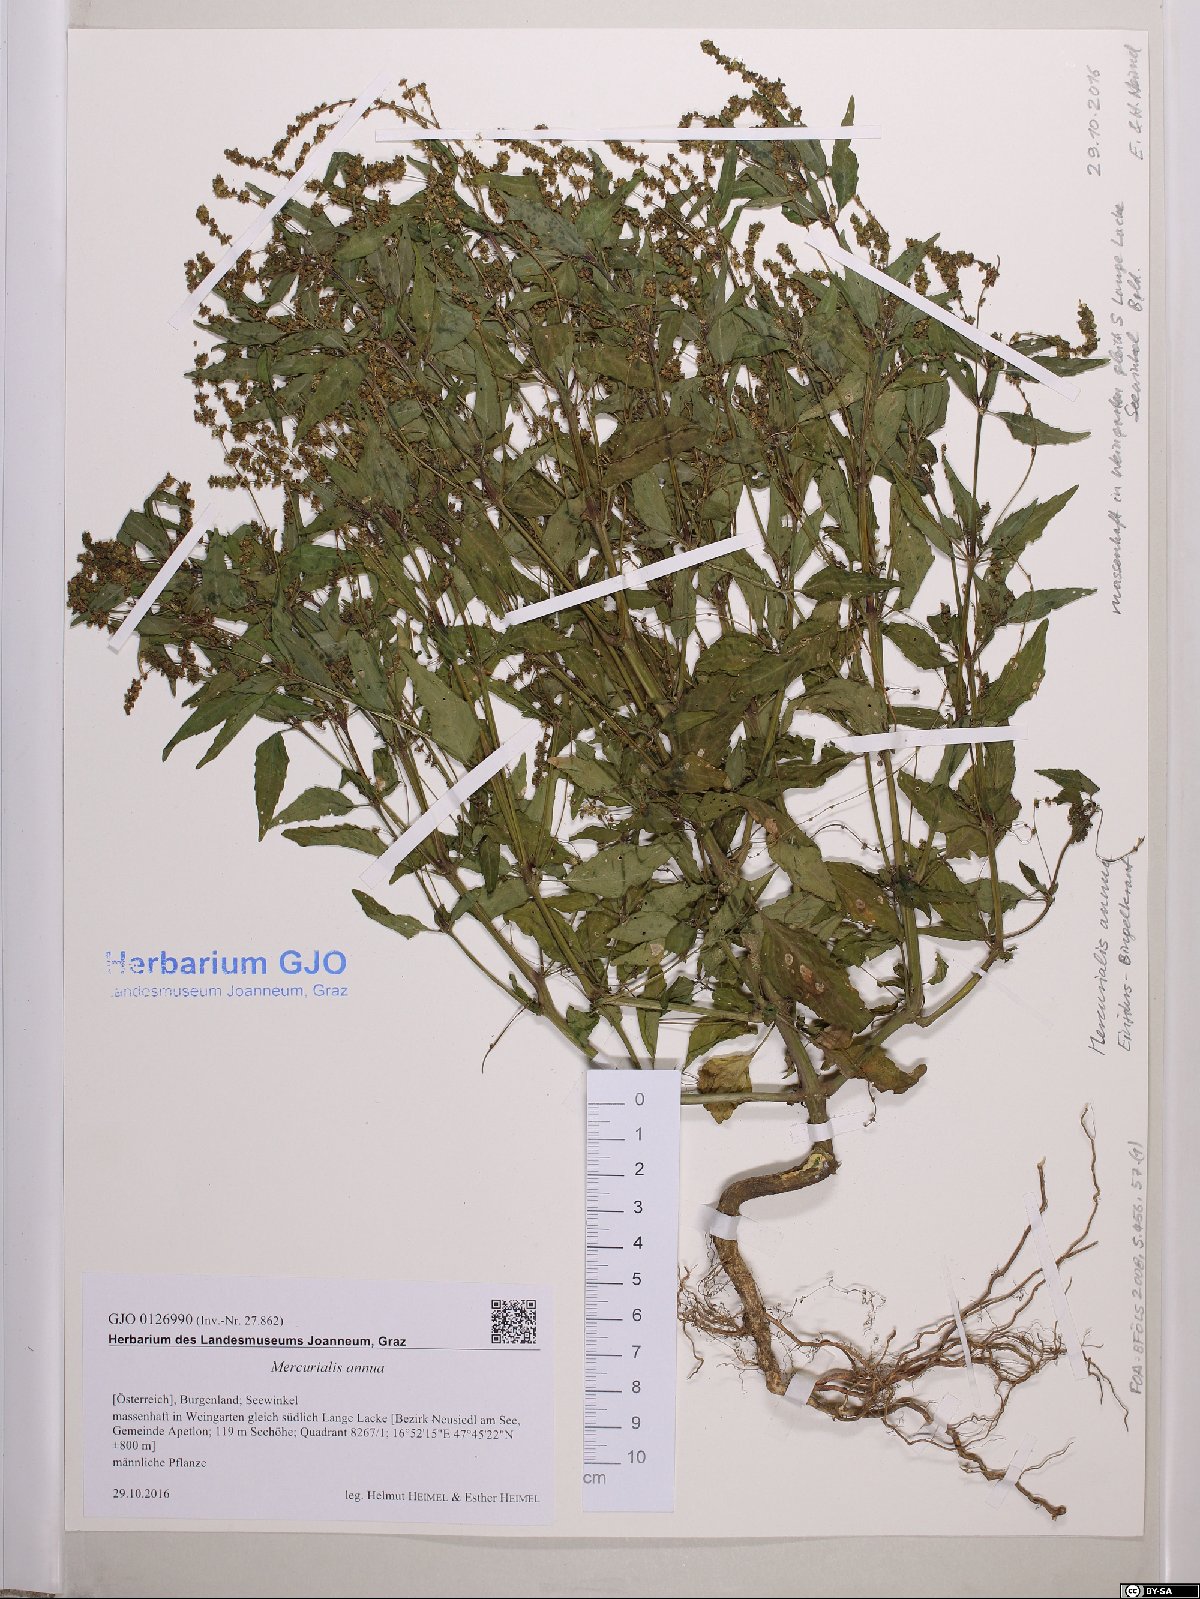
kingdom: Plantae
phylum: Tracheophyta
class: Magnoliopsida
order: Malpighiales
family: Euphorbiaceae
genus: Mercurialis
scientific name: Mercurialis annua
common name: Annual mercury
